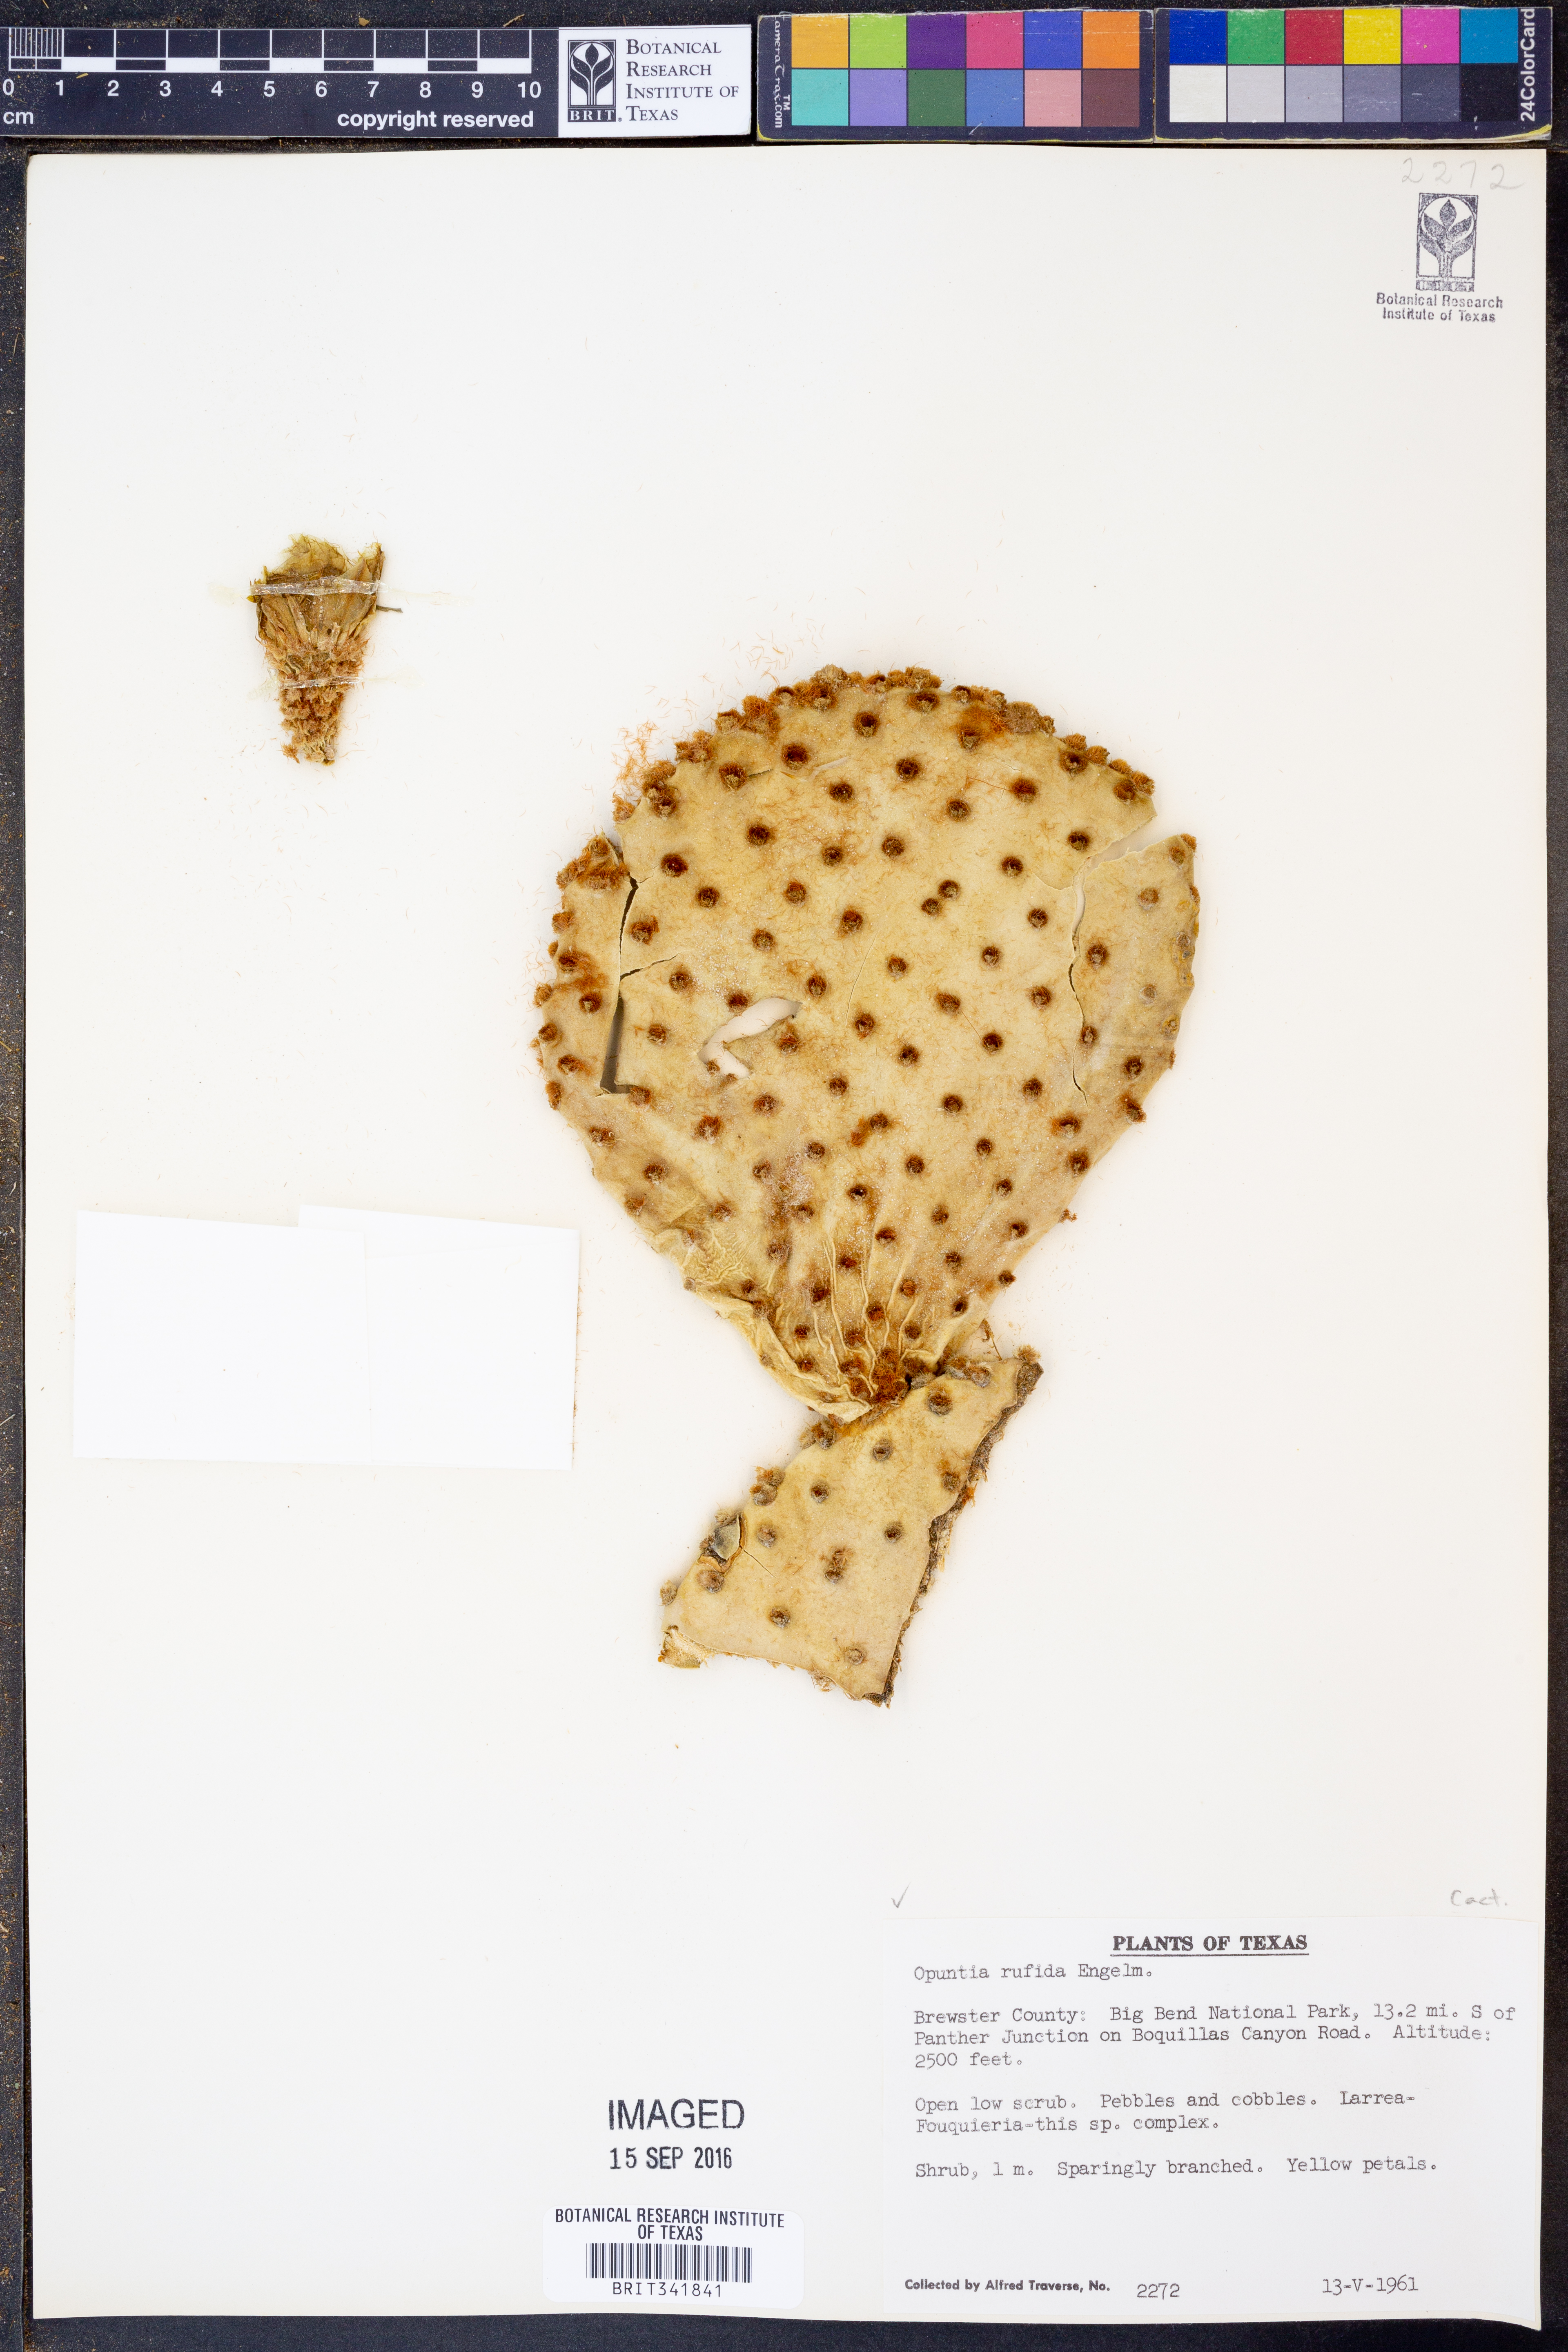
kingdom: Plantae
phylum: Tracheophyta
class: Magnoliopsida
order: Caryophyllales
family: Cactaceae
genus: Opuntia
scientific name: Opuntia rufida
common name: Blind pricklypear
